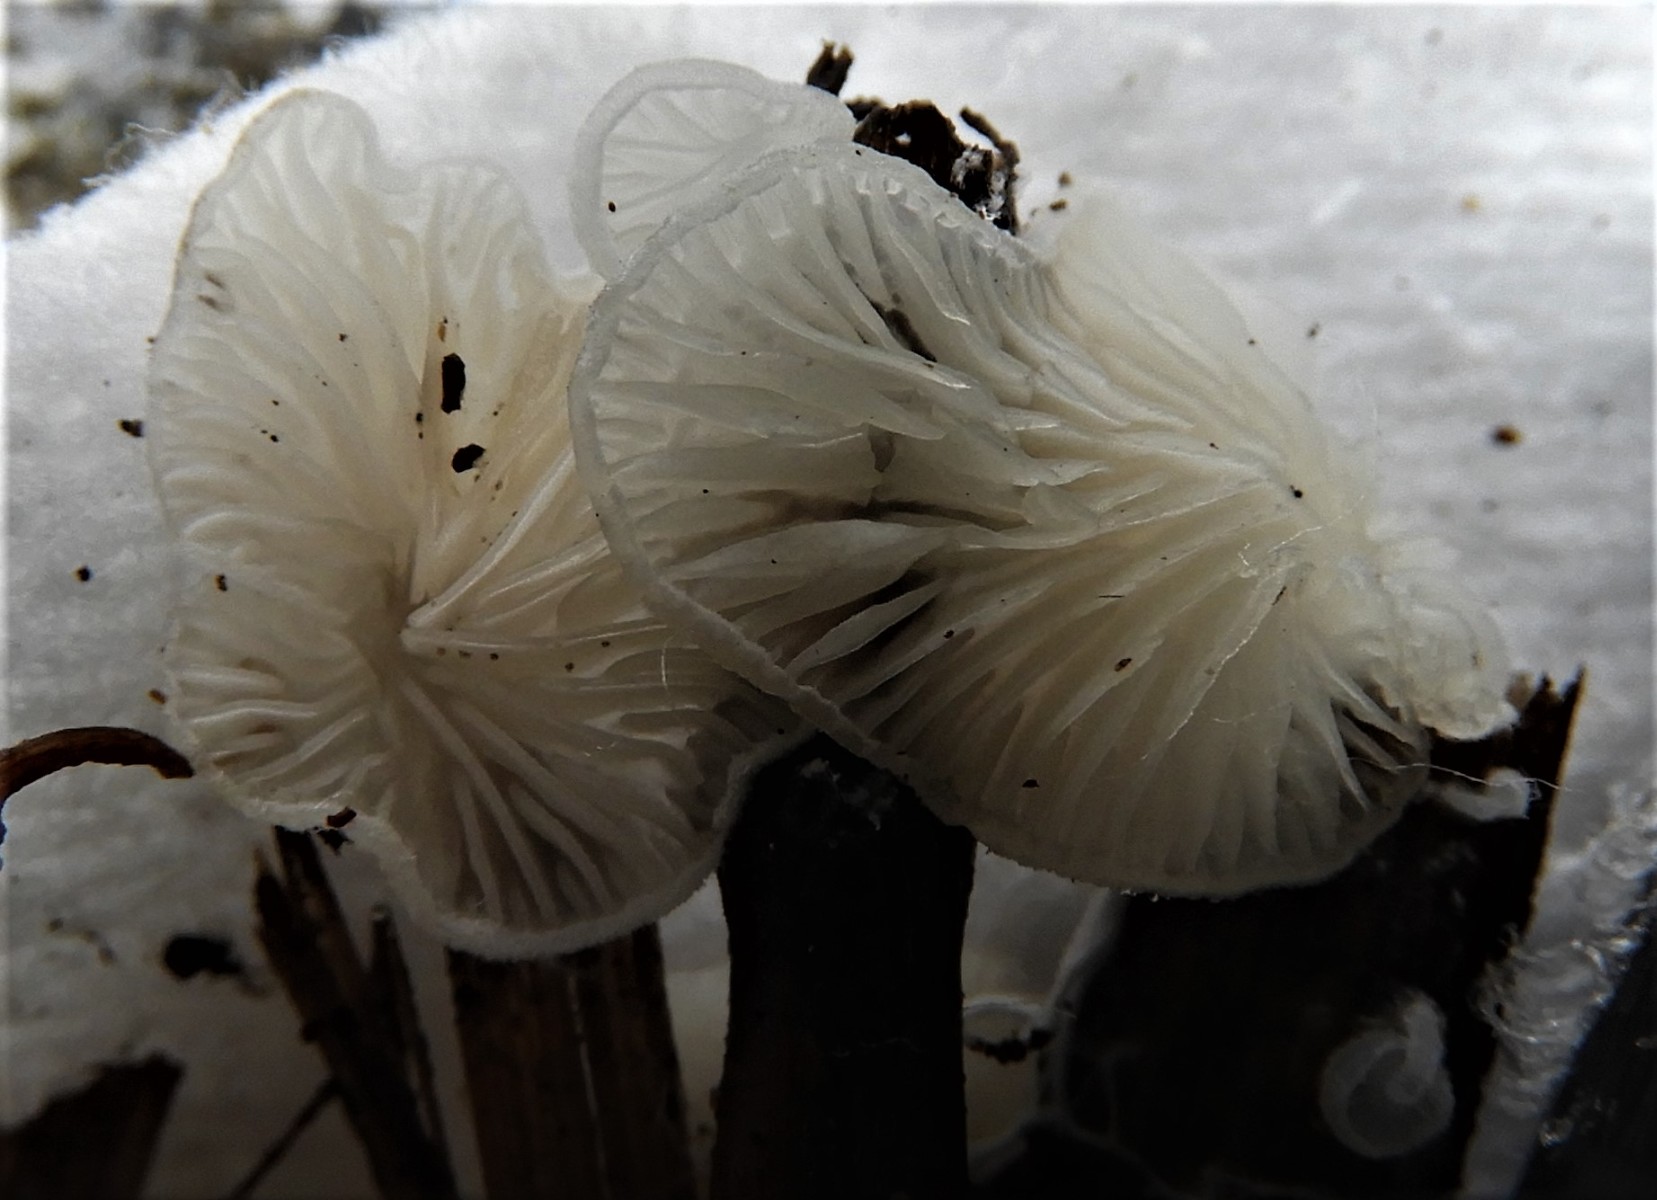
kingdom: Fungi
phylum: Basidiomycota
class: Agaricomycetes
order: Agaricales
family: Entolomataceae
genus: Clitopilus
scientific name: Clitopilus hobsonii
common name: Miller's oysterling
